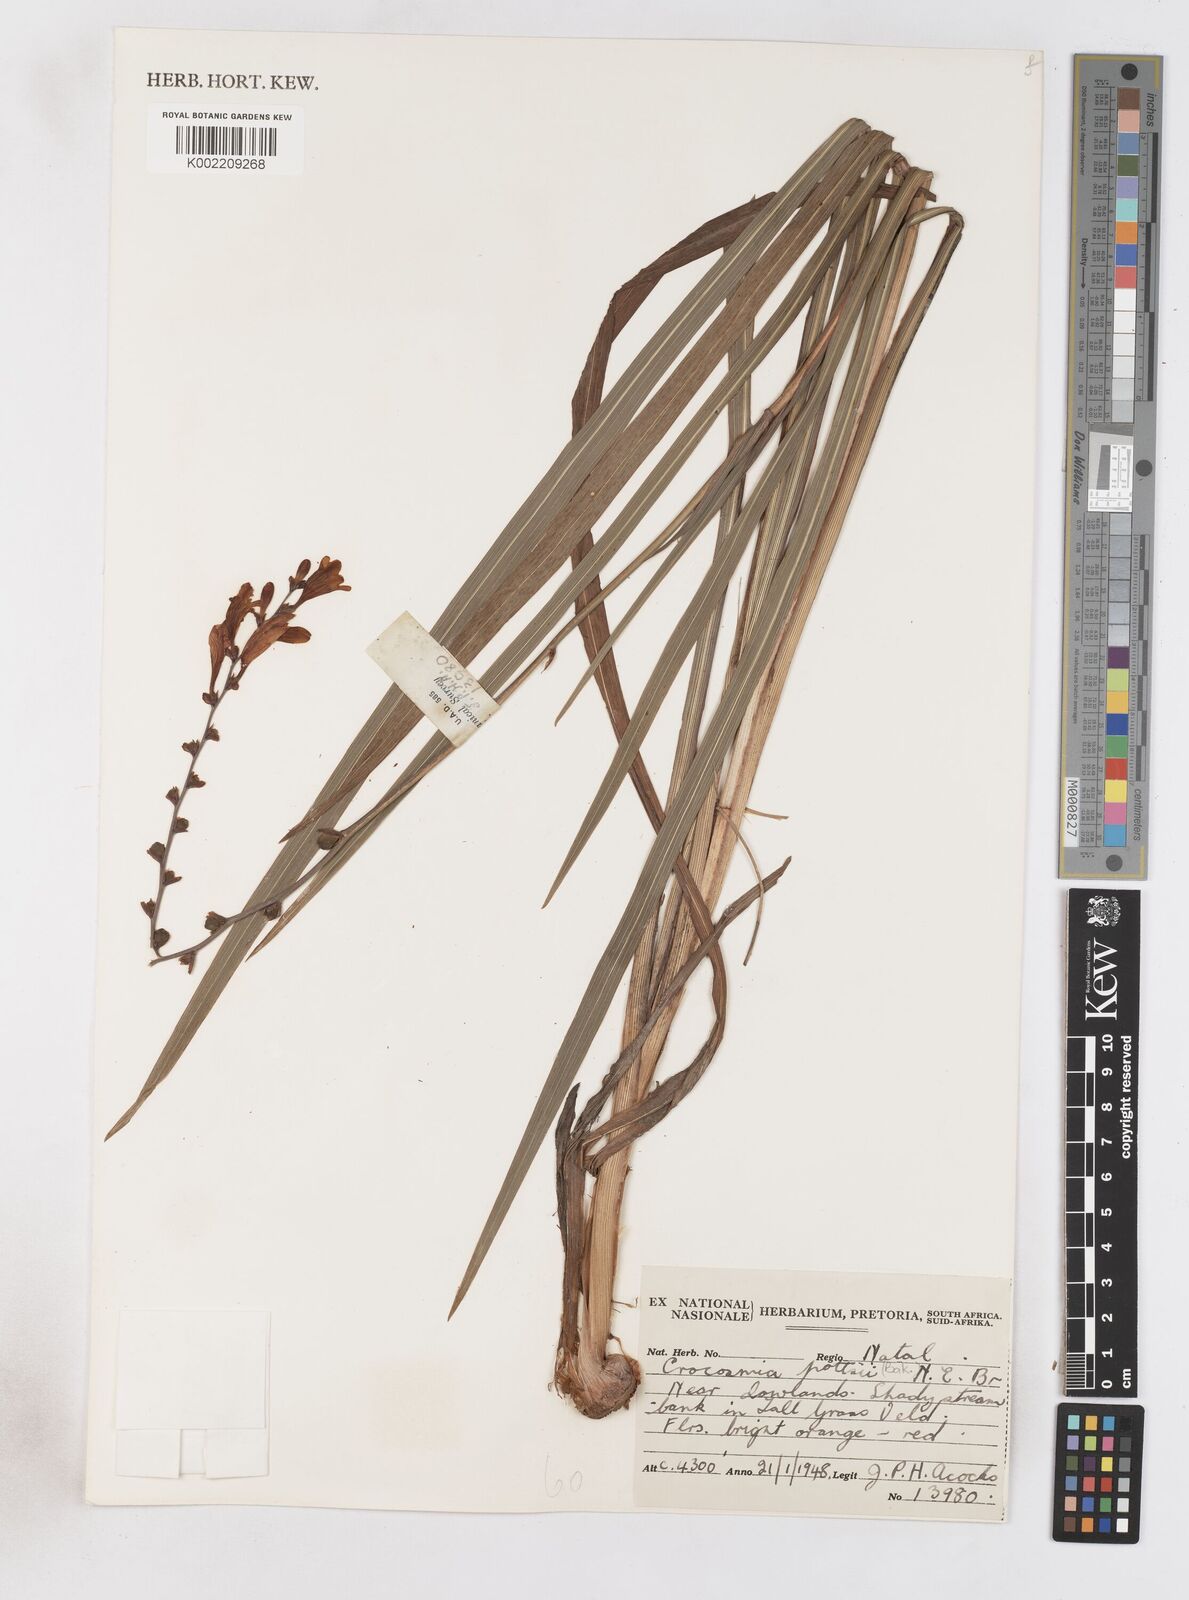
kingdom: Plantae
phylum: Tracheophyta
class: Liliopsida
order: Asparagales
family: Iridaceae
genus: Crocosmia
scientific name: Crocosmia pottsii
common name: Pott's montbretia
